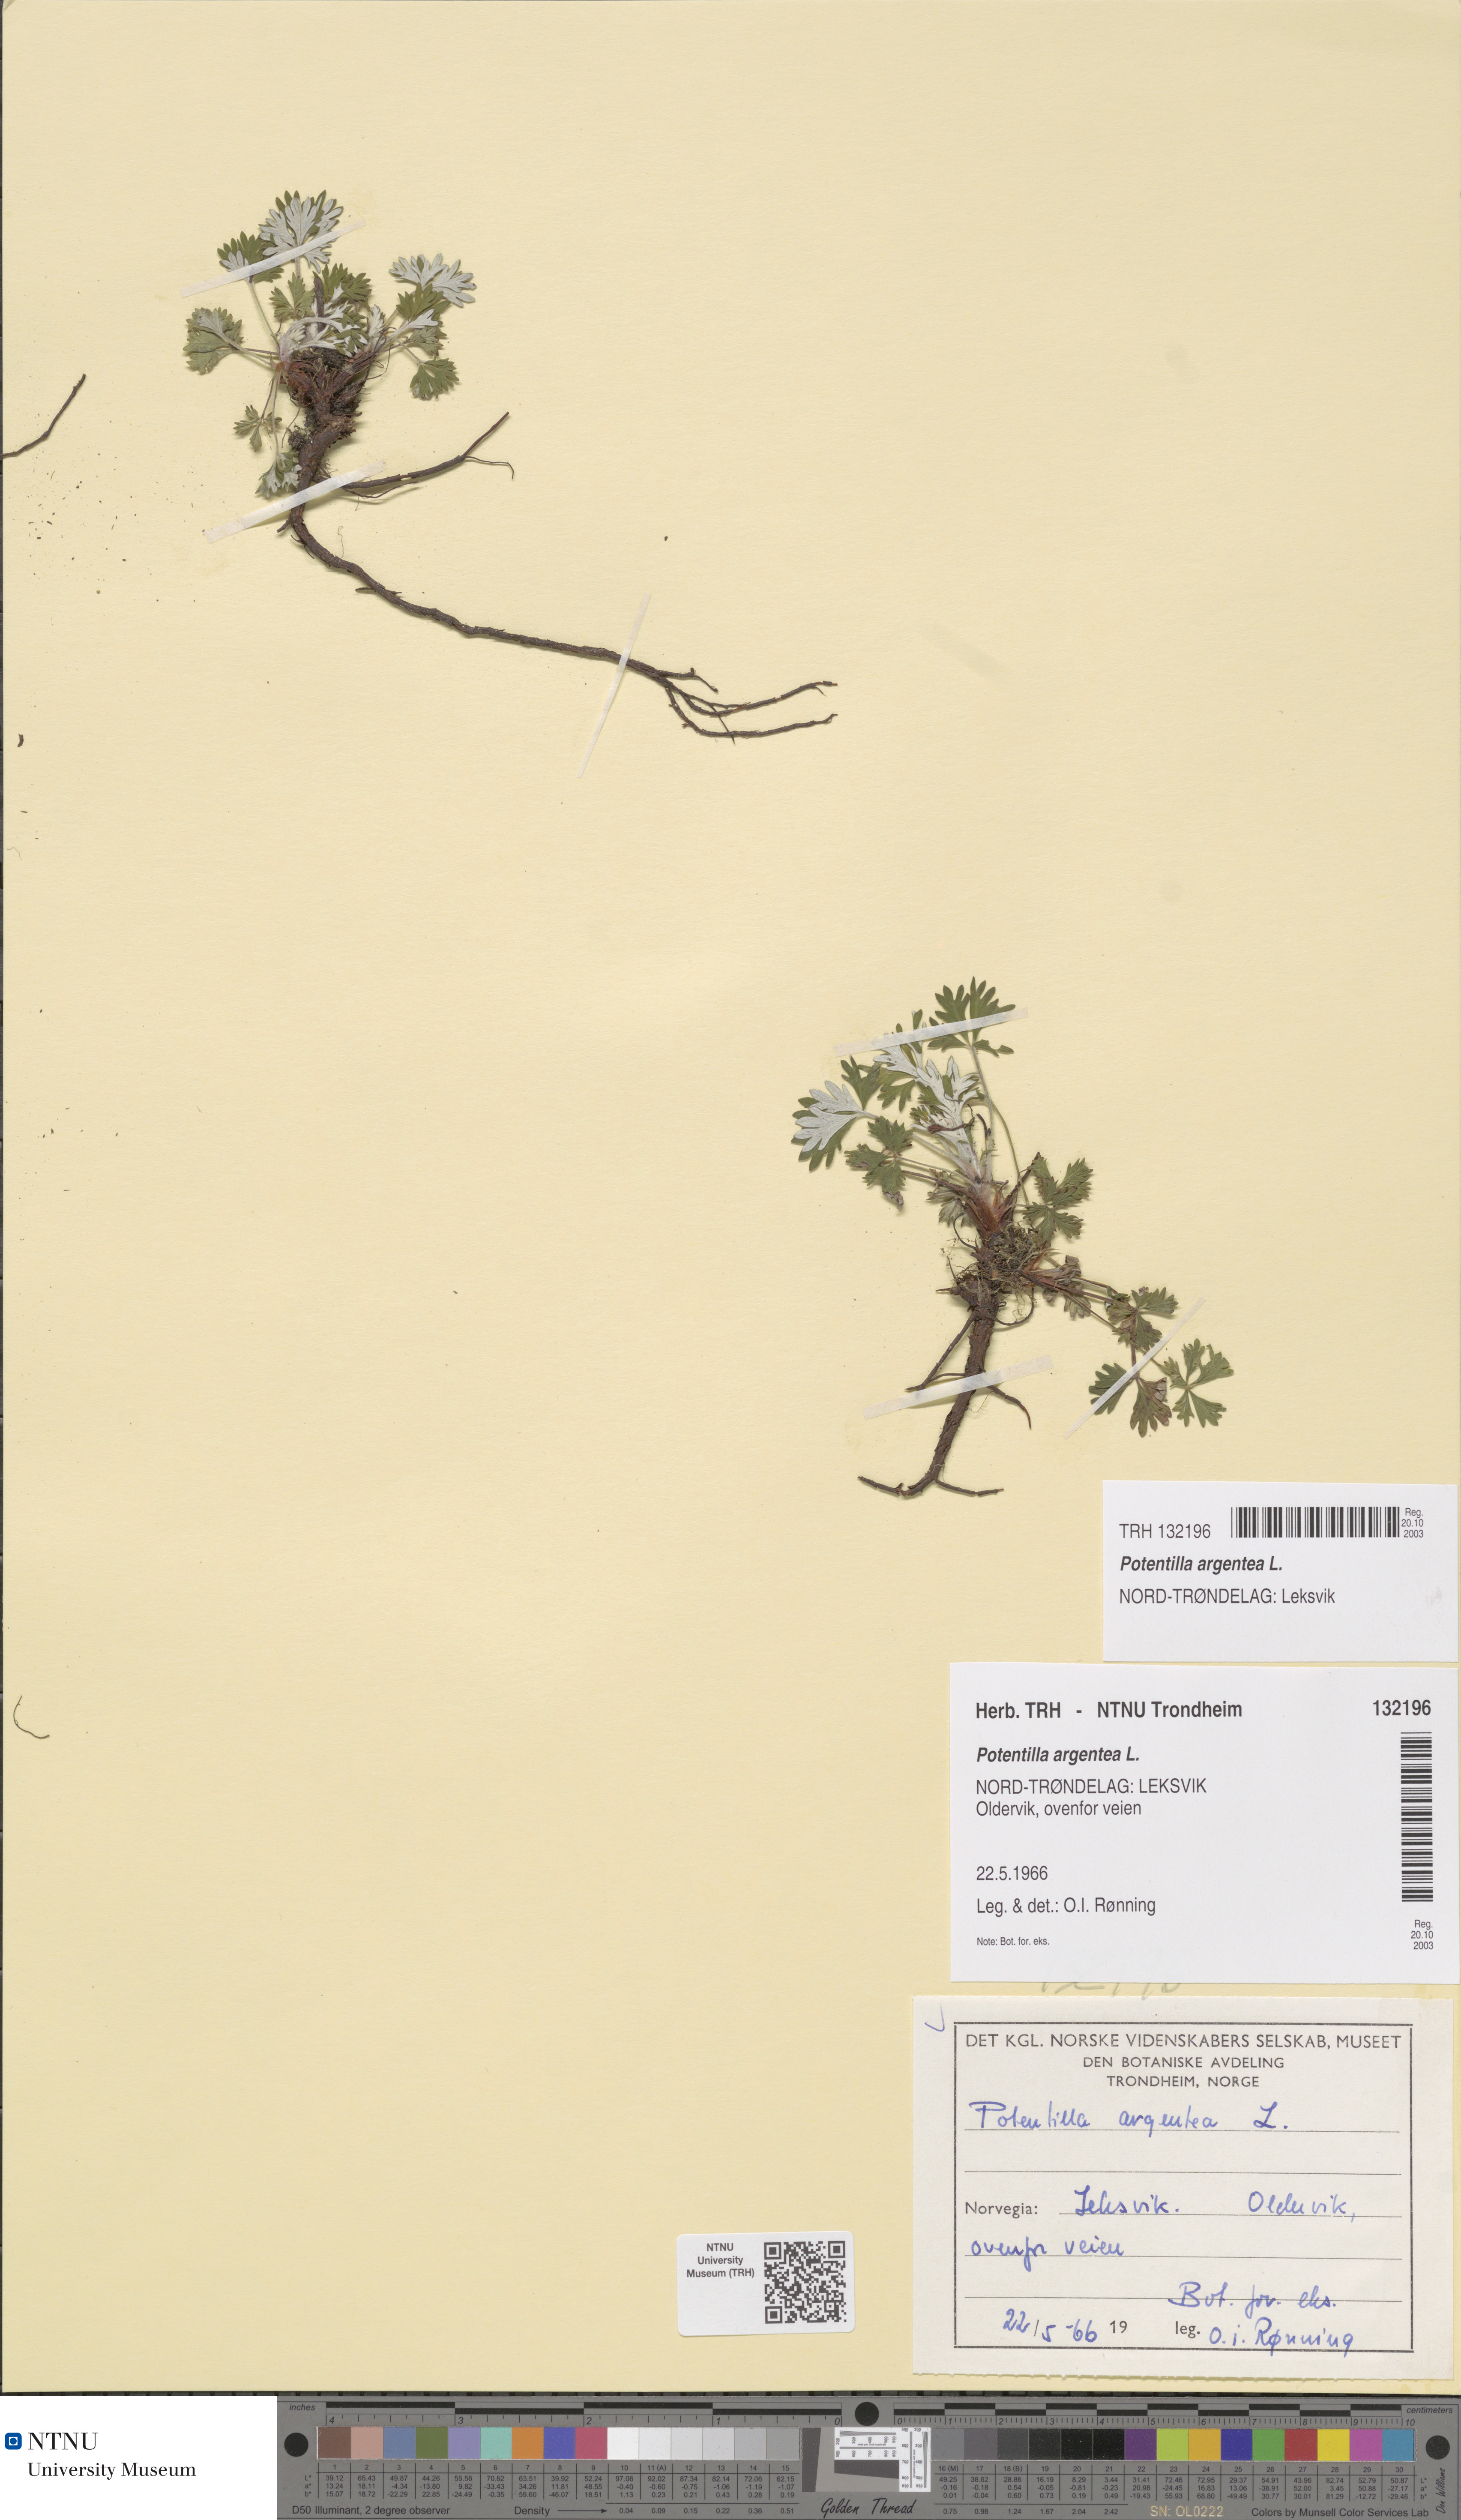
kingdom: Plantae
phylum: Tracheophyta
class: Magnoliopsida
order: Rosales
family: Rosaceae
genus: Potentilla
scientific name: Potentilla argentea
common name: Hoary cinquefoil
